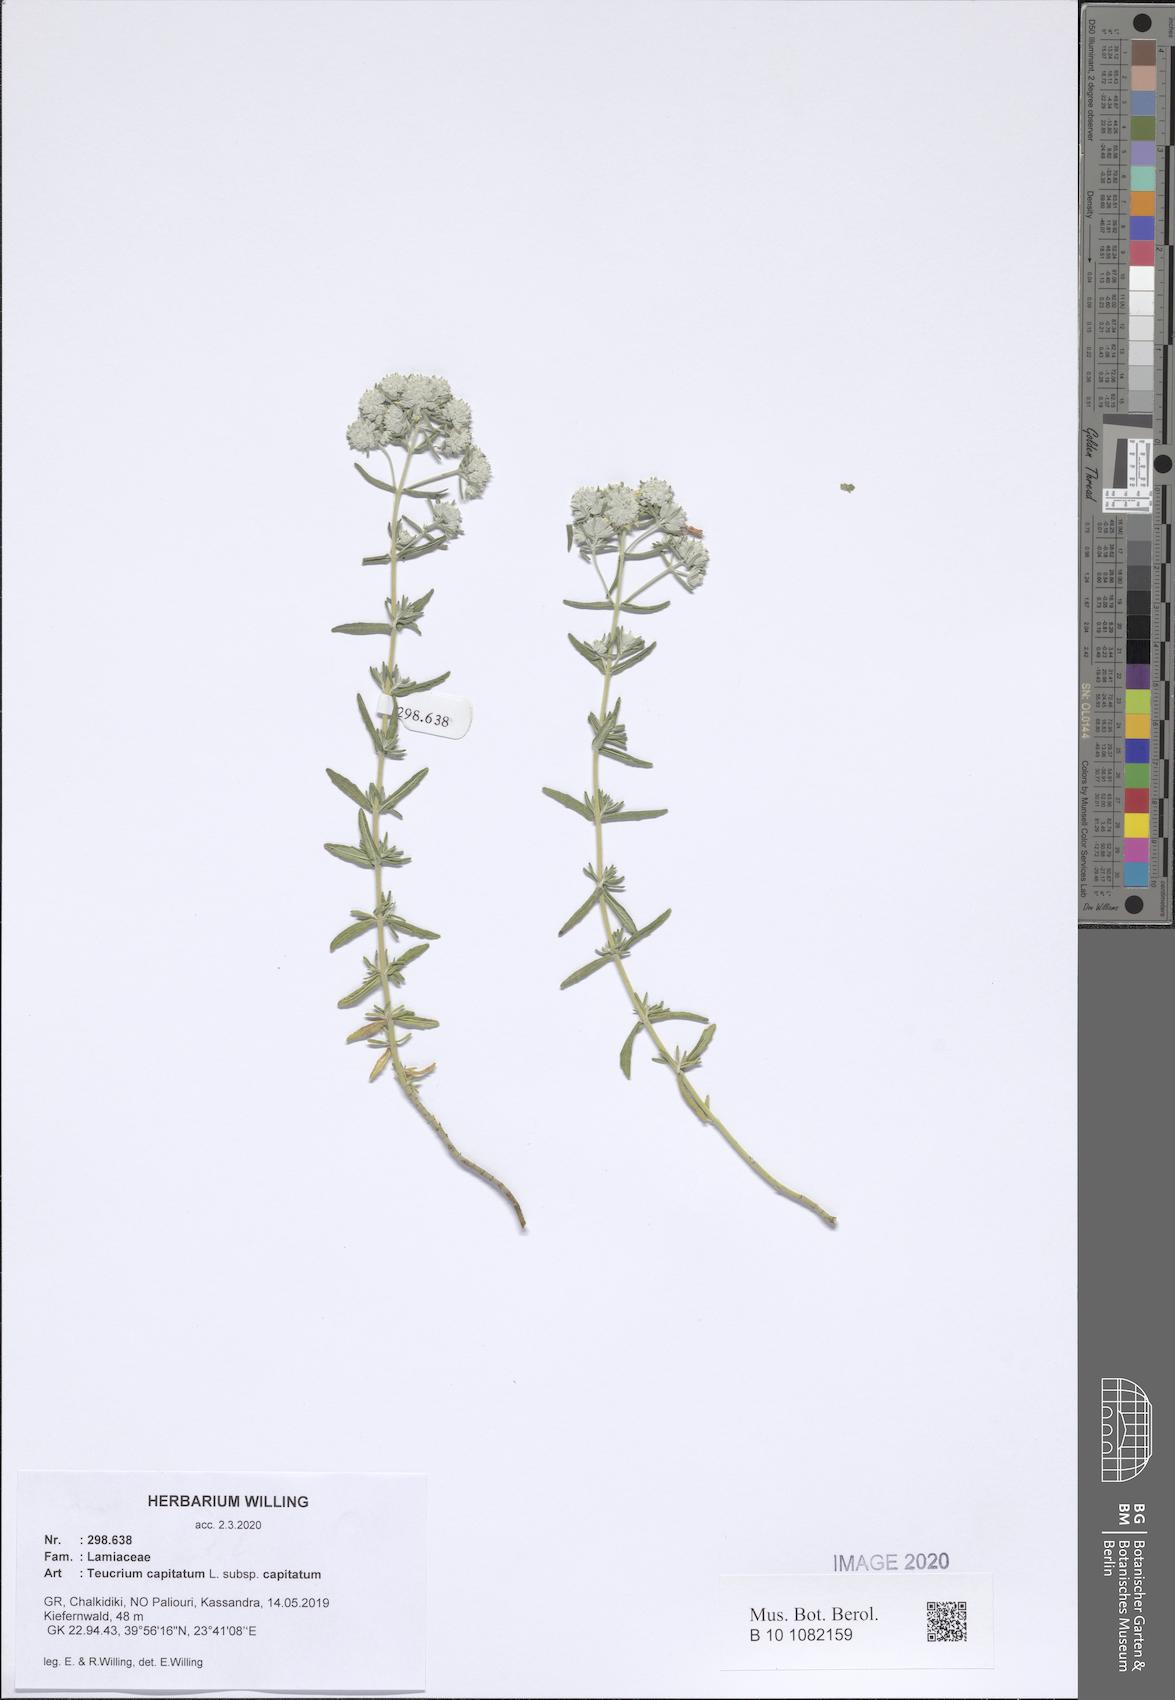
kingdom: Plantae
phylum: Tracheophyta
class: Magnoliopsida
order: Lamiales
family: Lamiaceae
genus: Teucrium
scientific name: Teucrium capitatum
